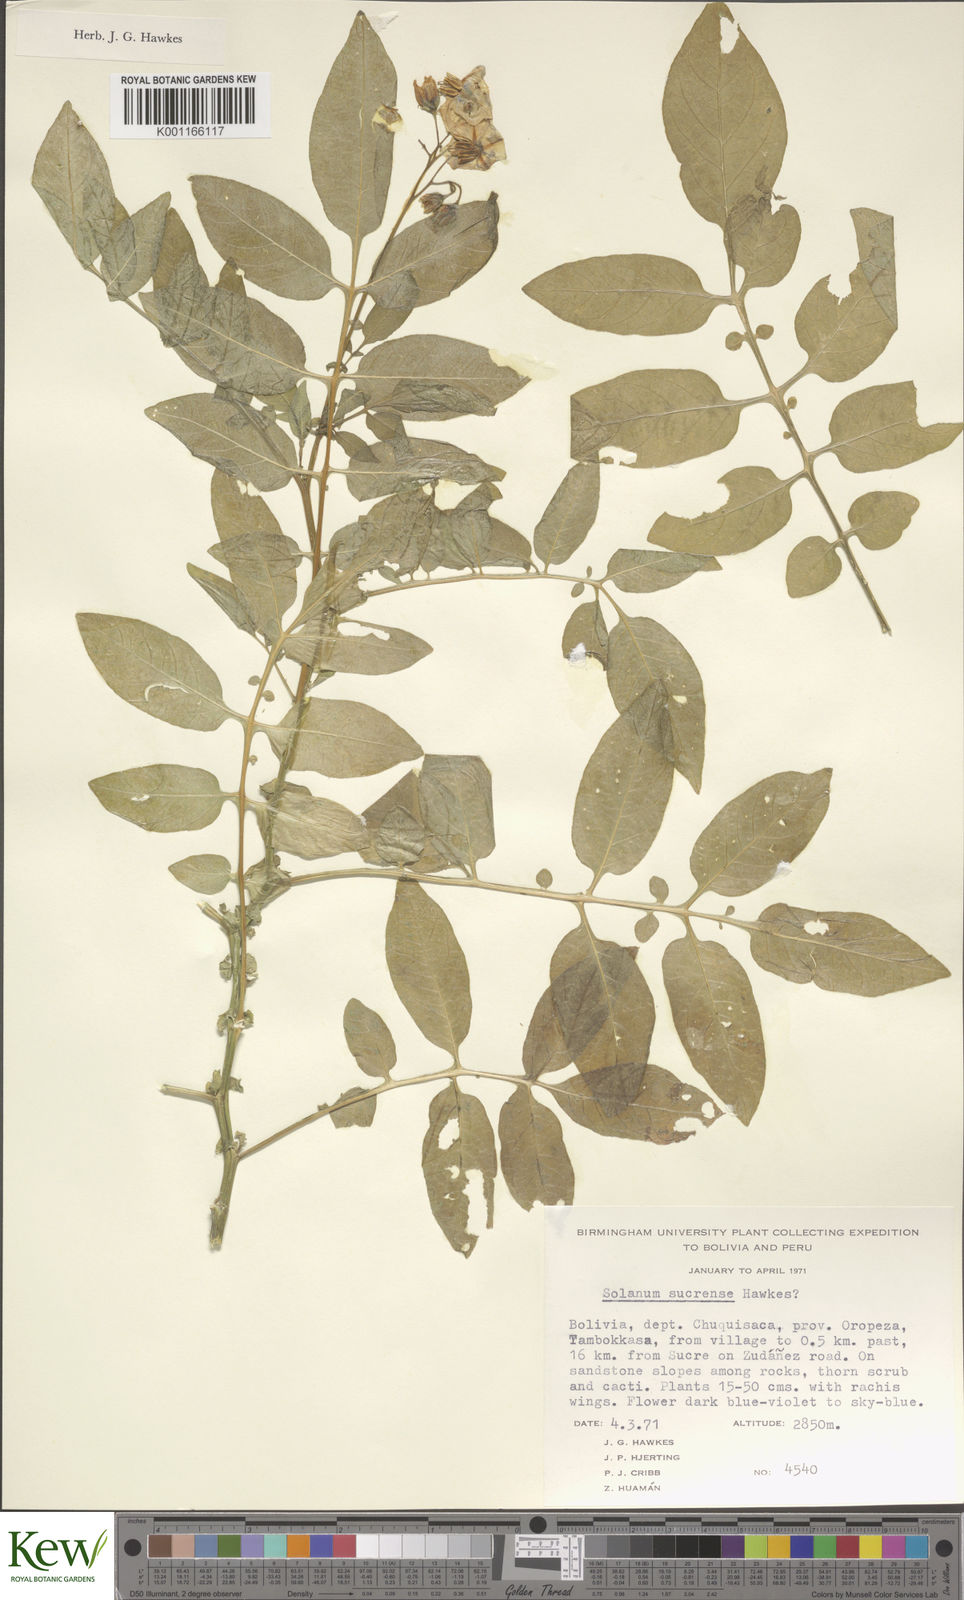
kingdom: Plantae
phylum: Tracheophyta
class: Magnoliopsida
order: Solanales
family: Solanaceae
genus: Solanum
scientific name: Solanum brevicaule
